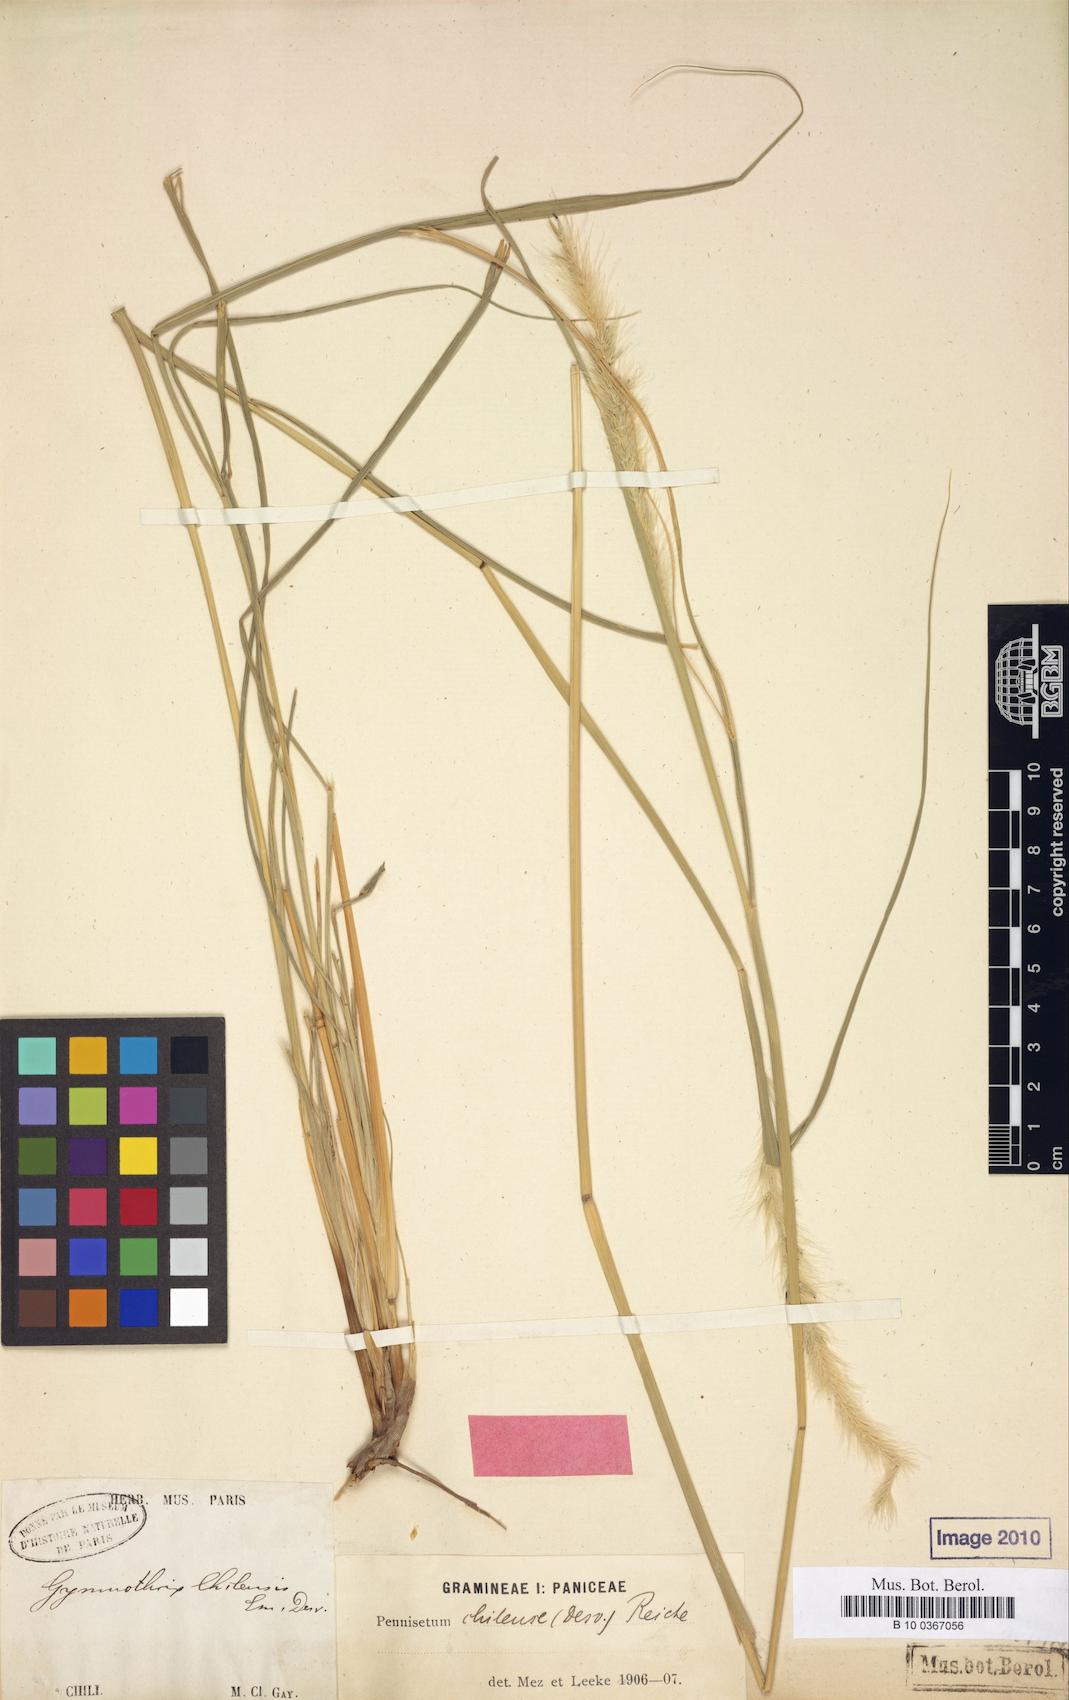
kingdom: Plantae
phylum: Tracheophyta
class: Liliopsida
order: Poales
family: Poaceae
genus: Cenchrus
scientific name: Cenchrus chilensis
